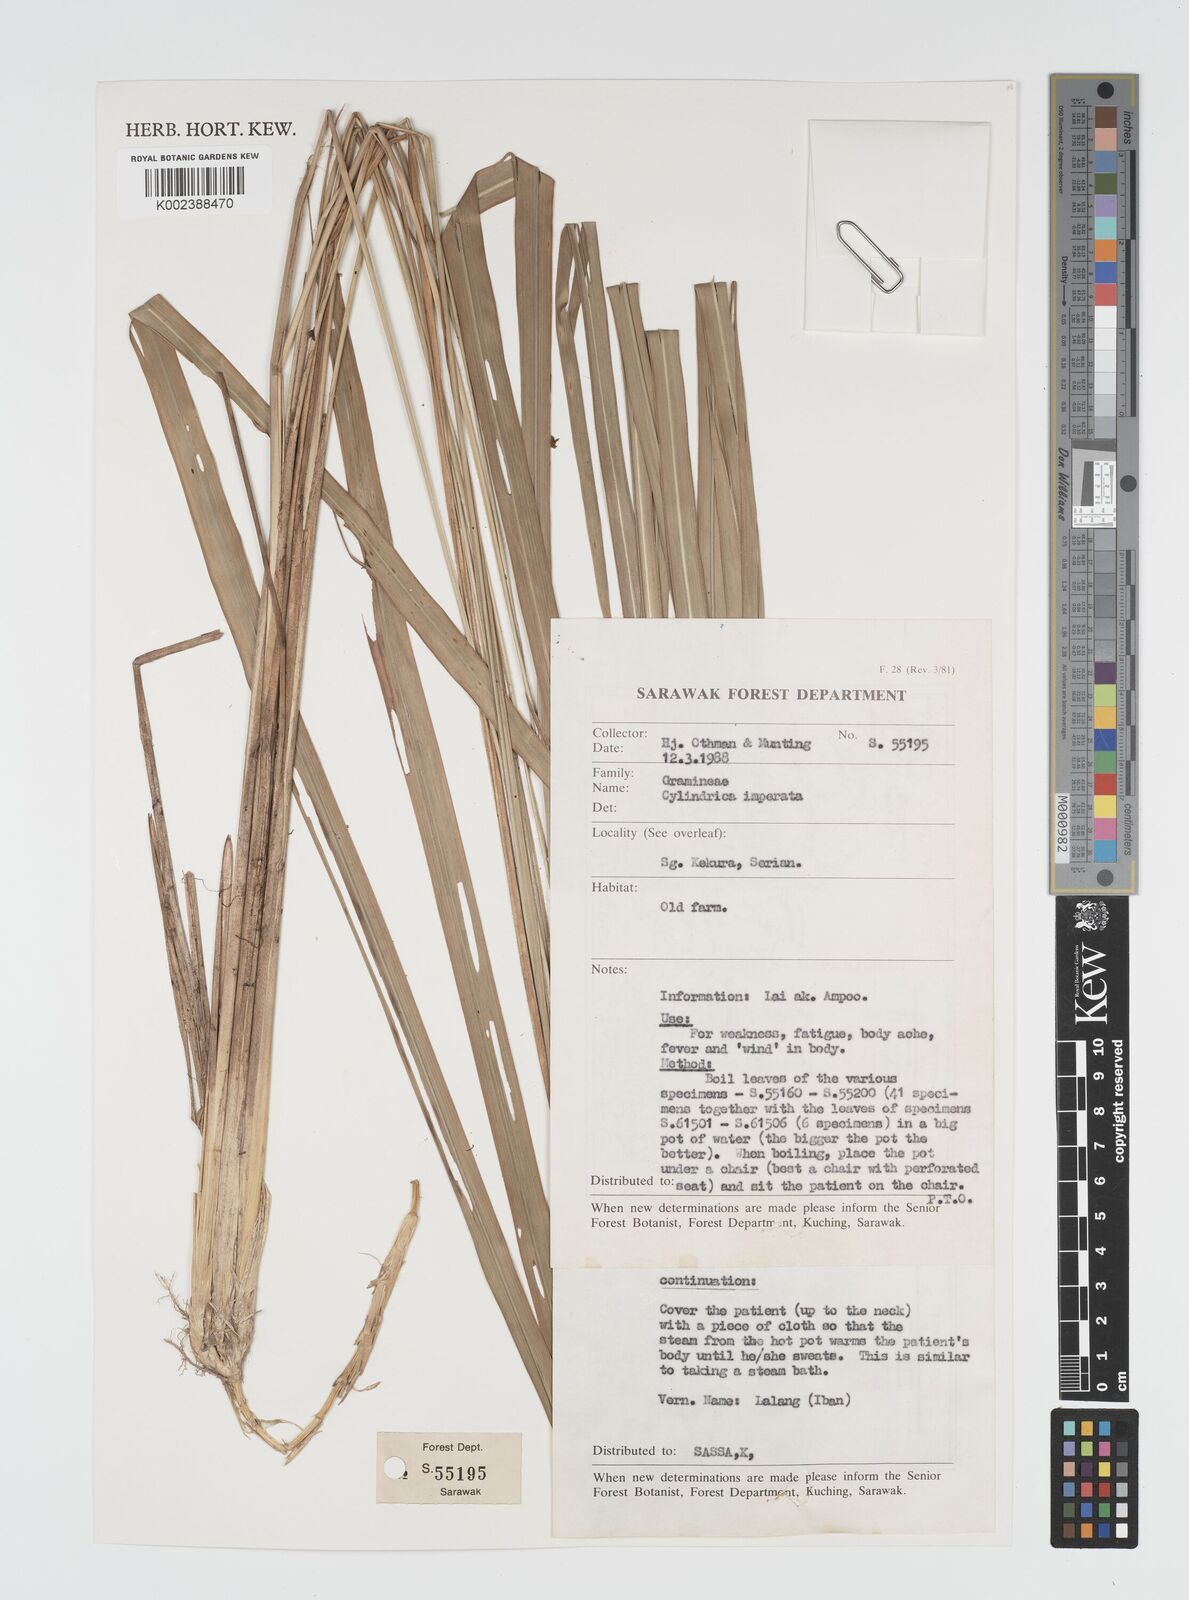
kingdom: Plantae
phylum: Tracheophyta
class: Liliopsida
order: Poales
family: Poaceae
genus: Imperata
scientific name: Imperata cylindrica
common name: Cogongrass
